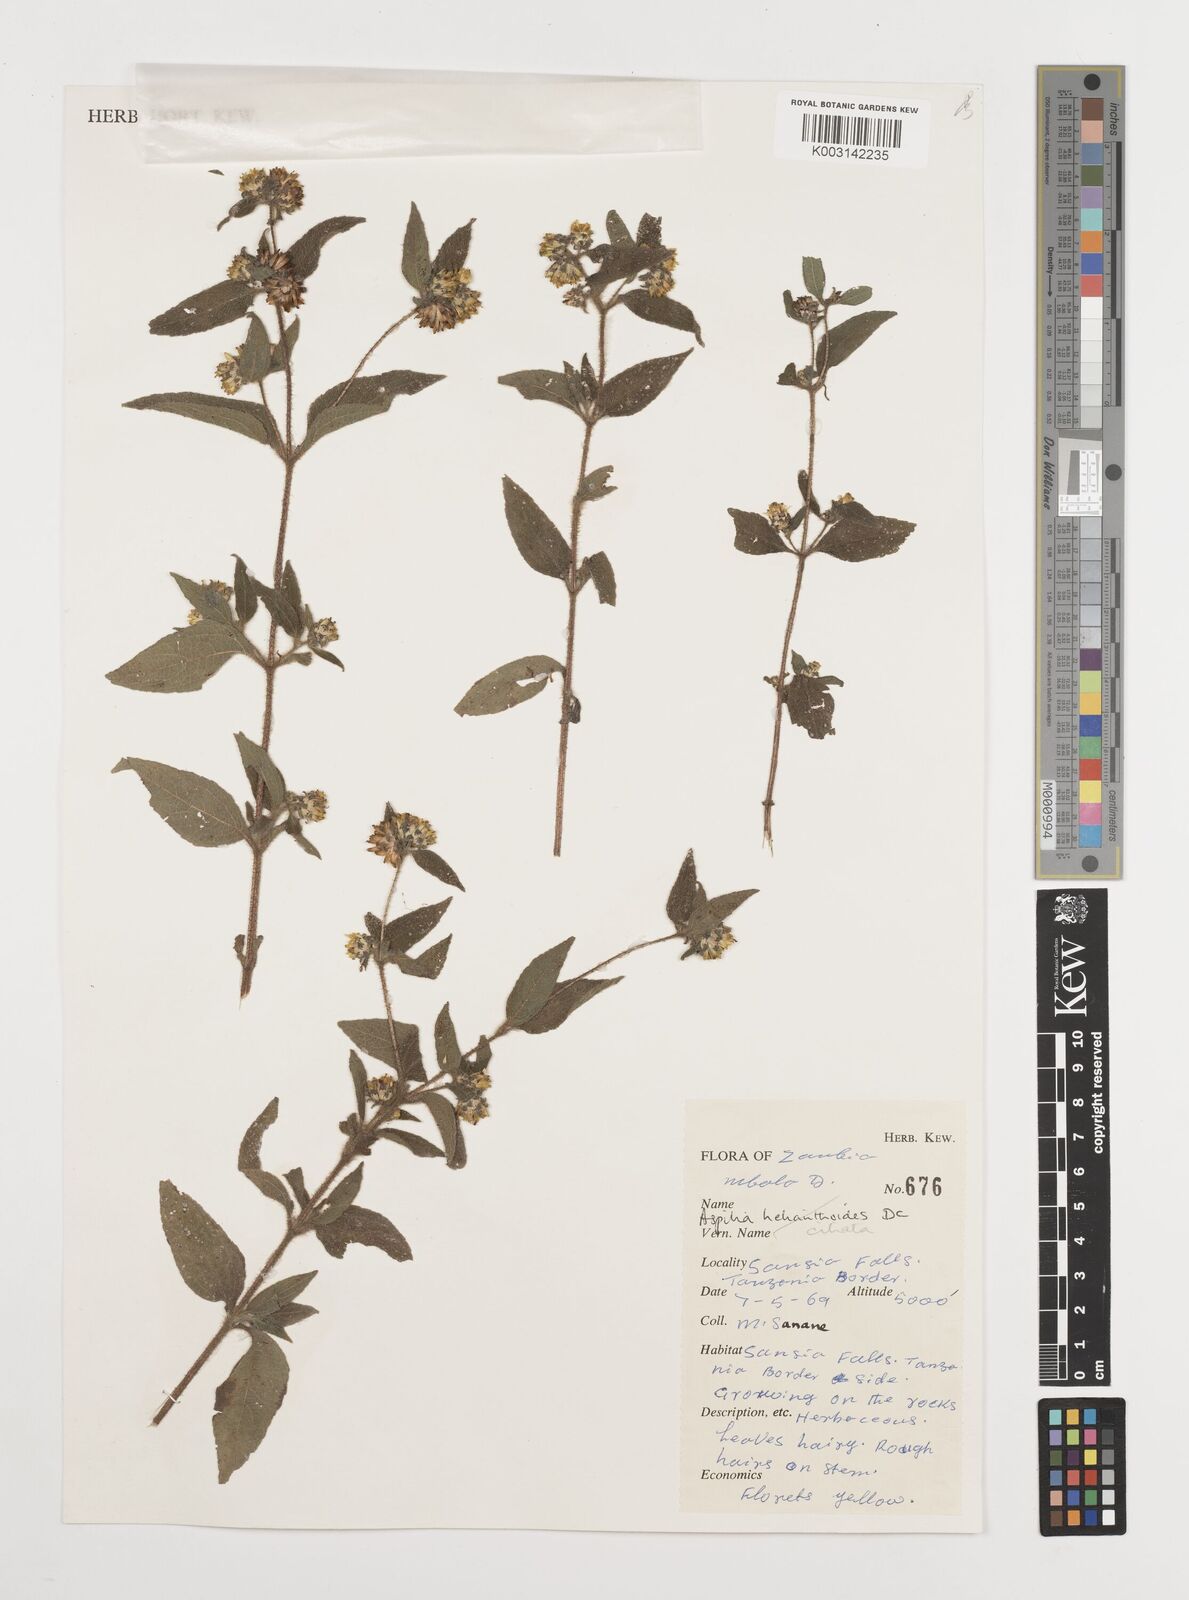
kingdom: Plantae
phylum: Tracheophyta
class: Magnoliopsida
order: Asterales
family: Asteraceae
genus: Aspilia
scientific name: Aspilia ciliata
